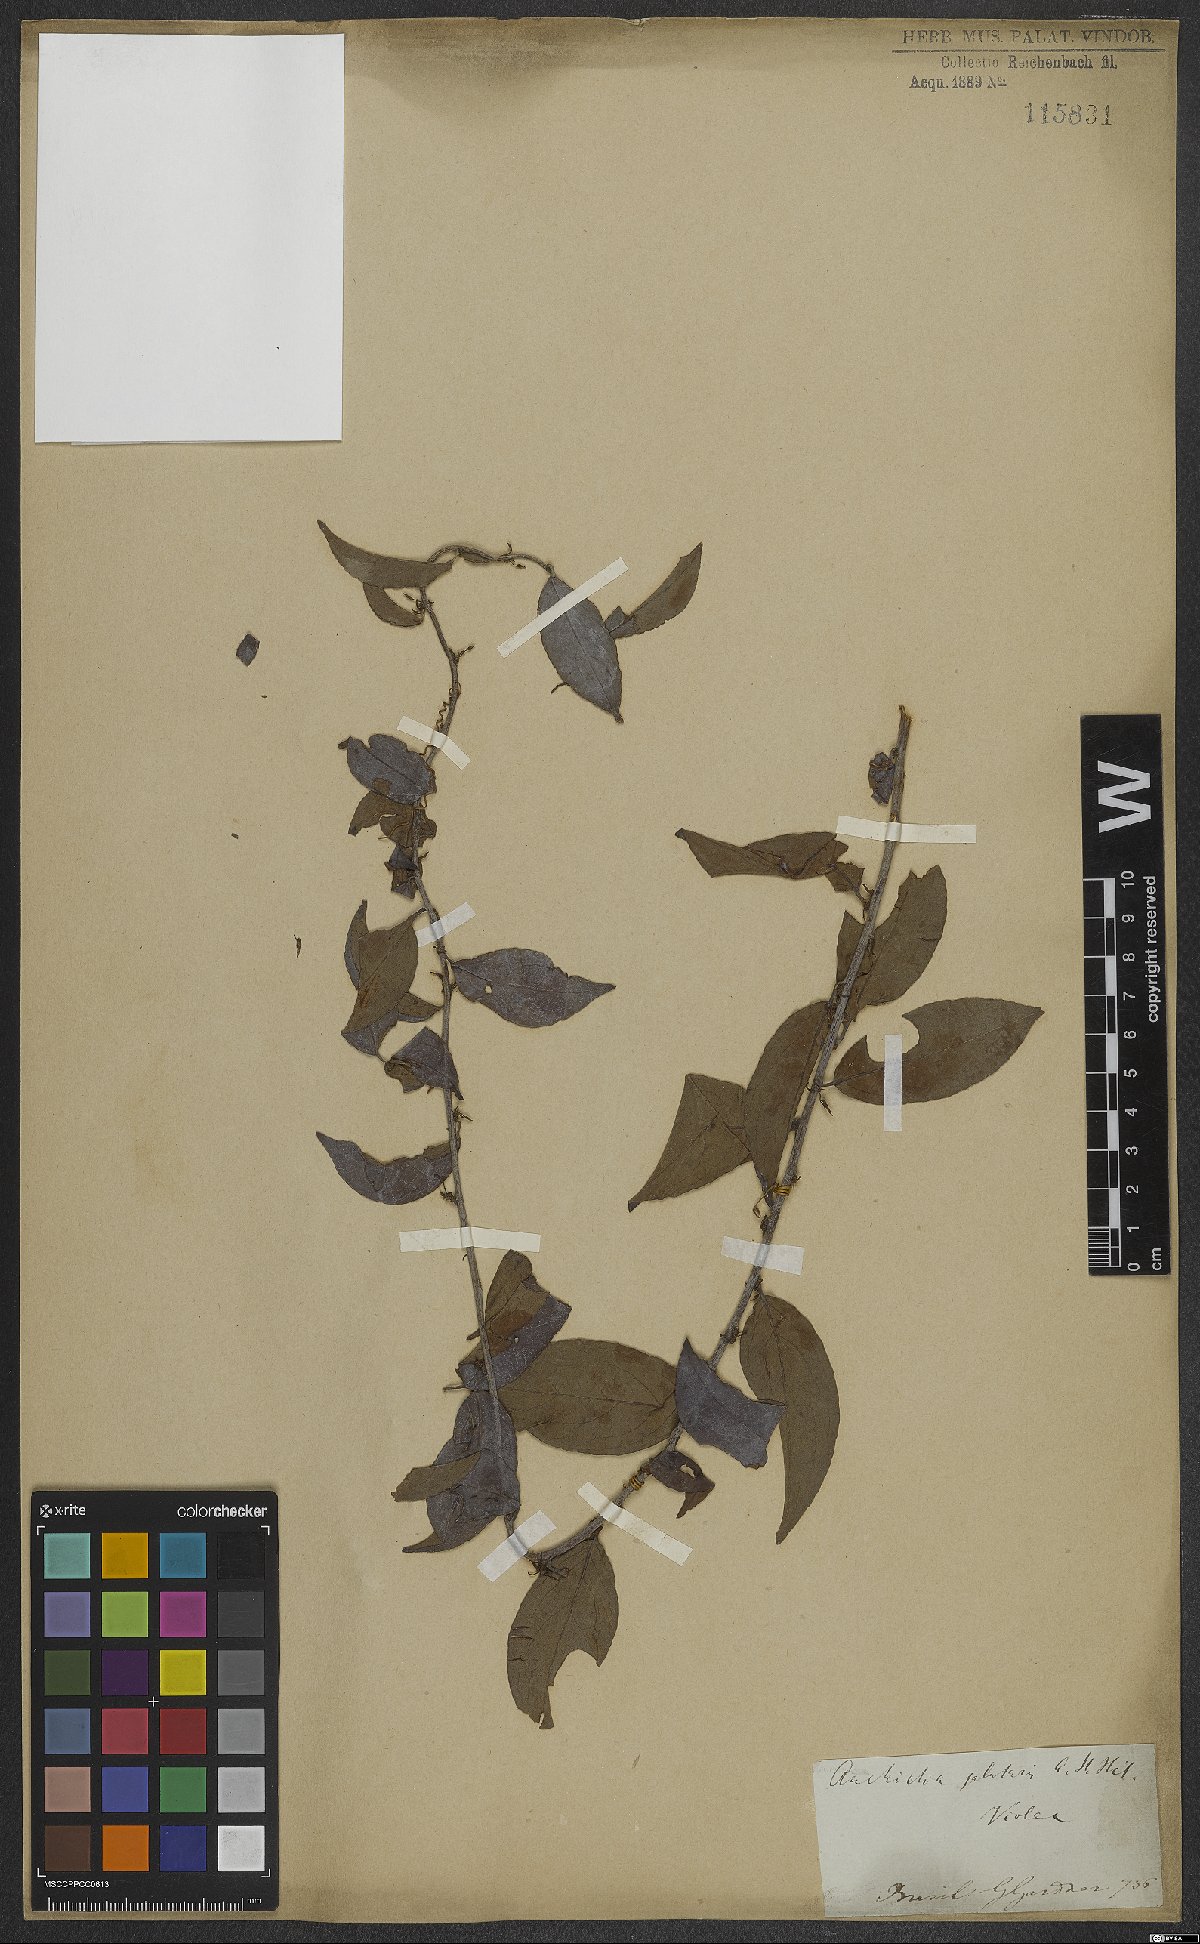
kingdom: Plantae
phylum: Tracheophyta
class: Magnoliopsida
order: Malpighiales
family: Violaceae
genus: Anchietea
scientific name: Anchietea pyrifolia
